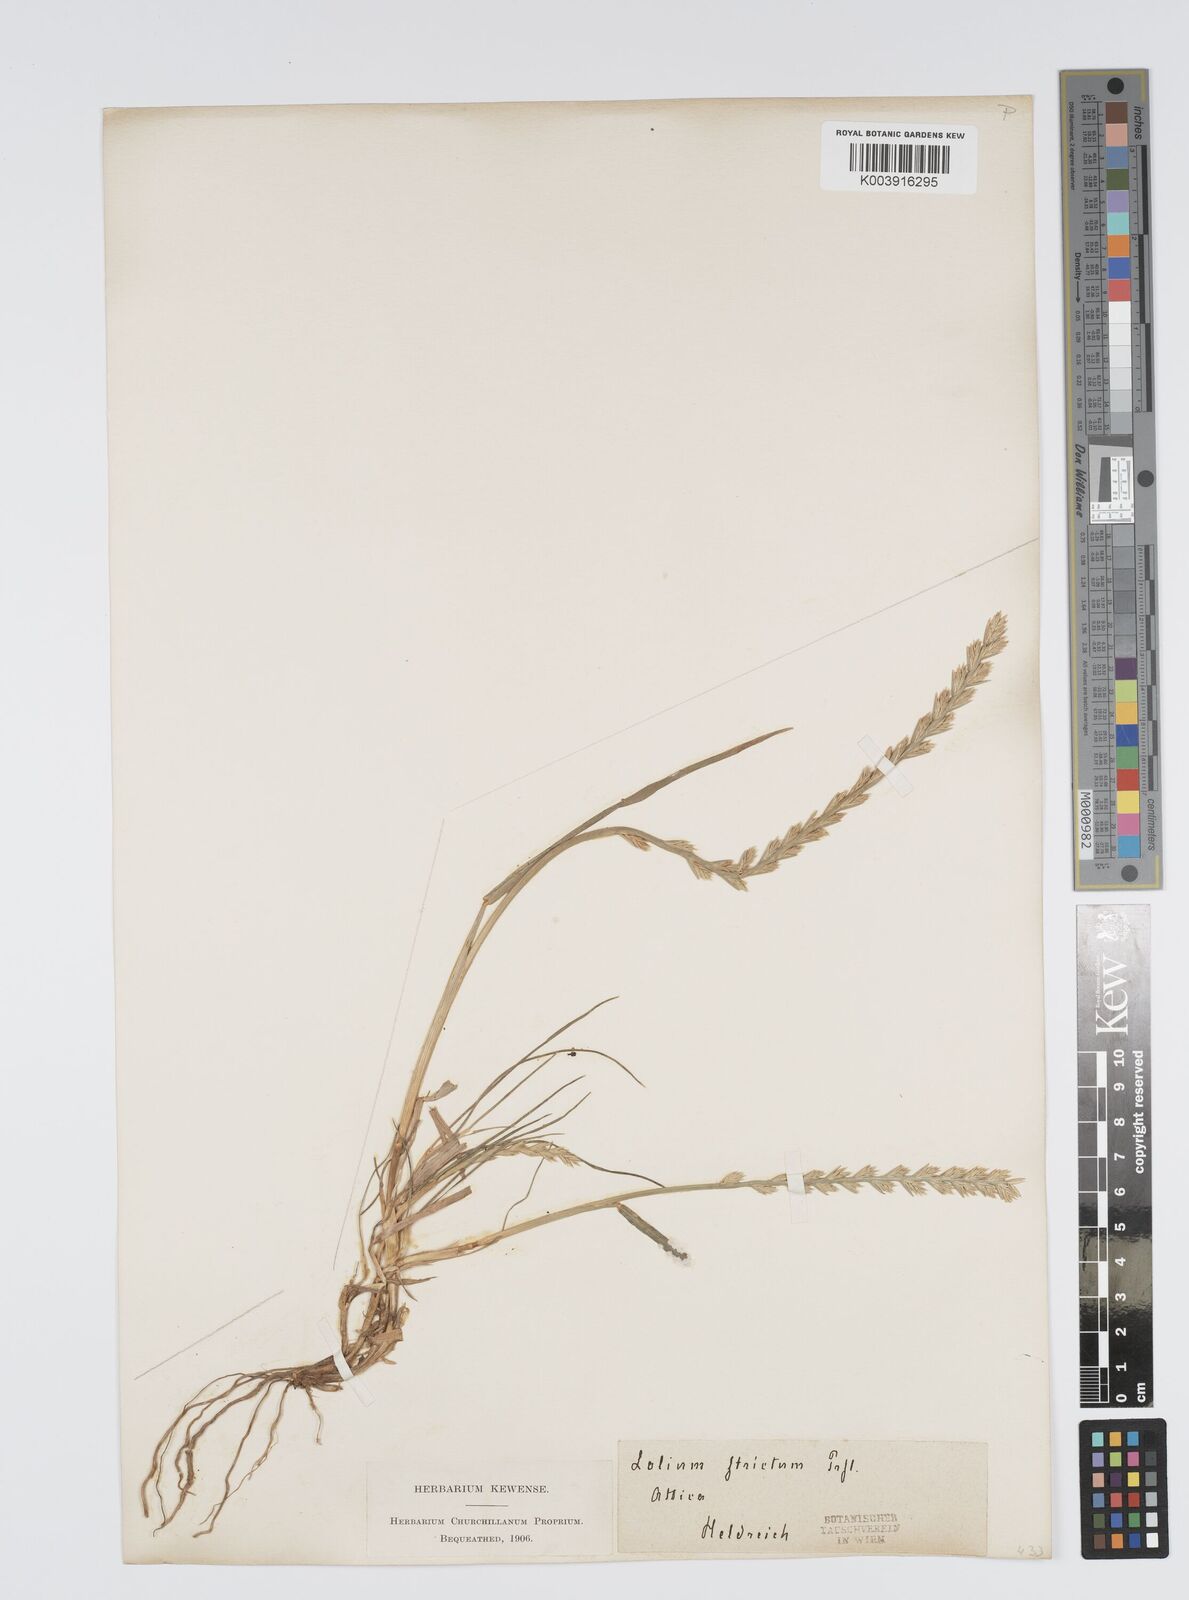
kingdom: Plantae
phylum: Tracheophyta
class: Liliopsida
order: Poales
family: Poaceae
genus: Lolium
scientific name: Lolium rigidum
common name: Wimmera ryegrass
